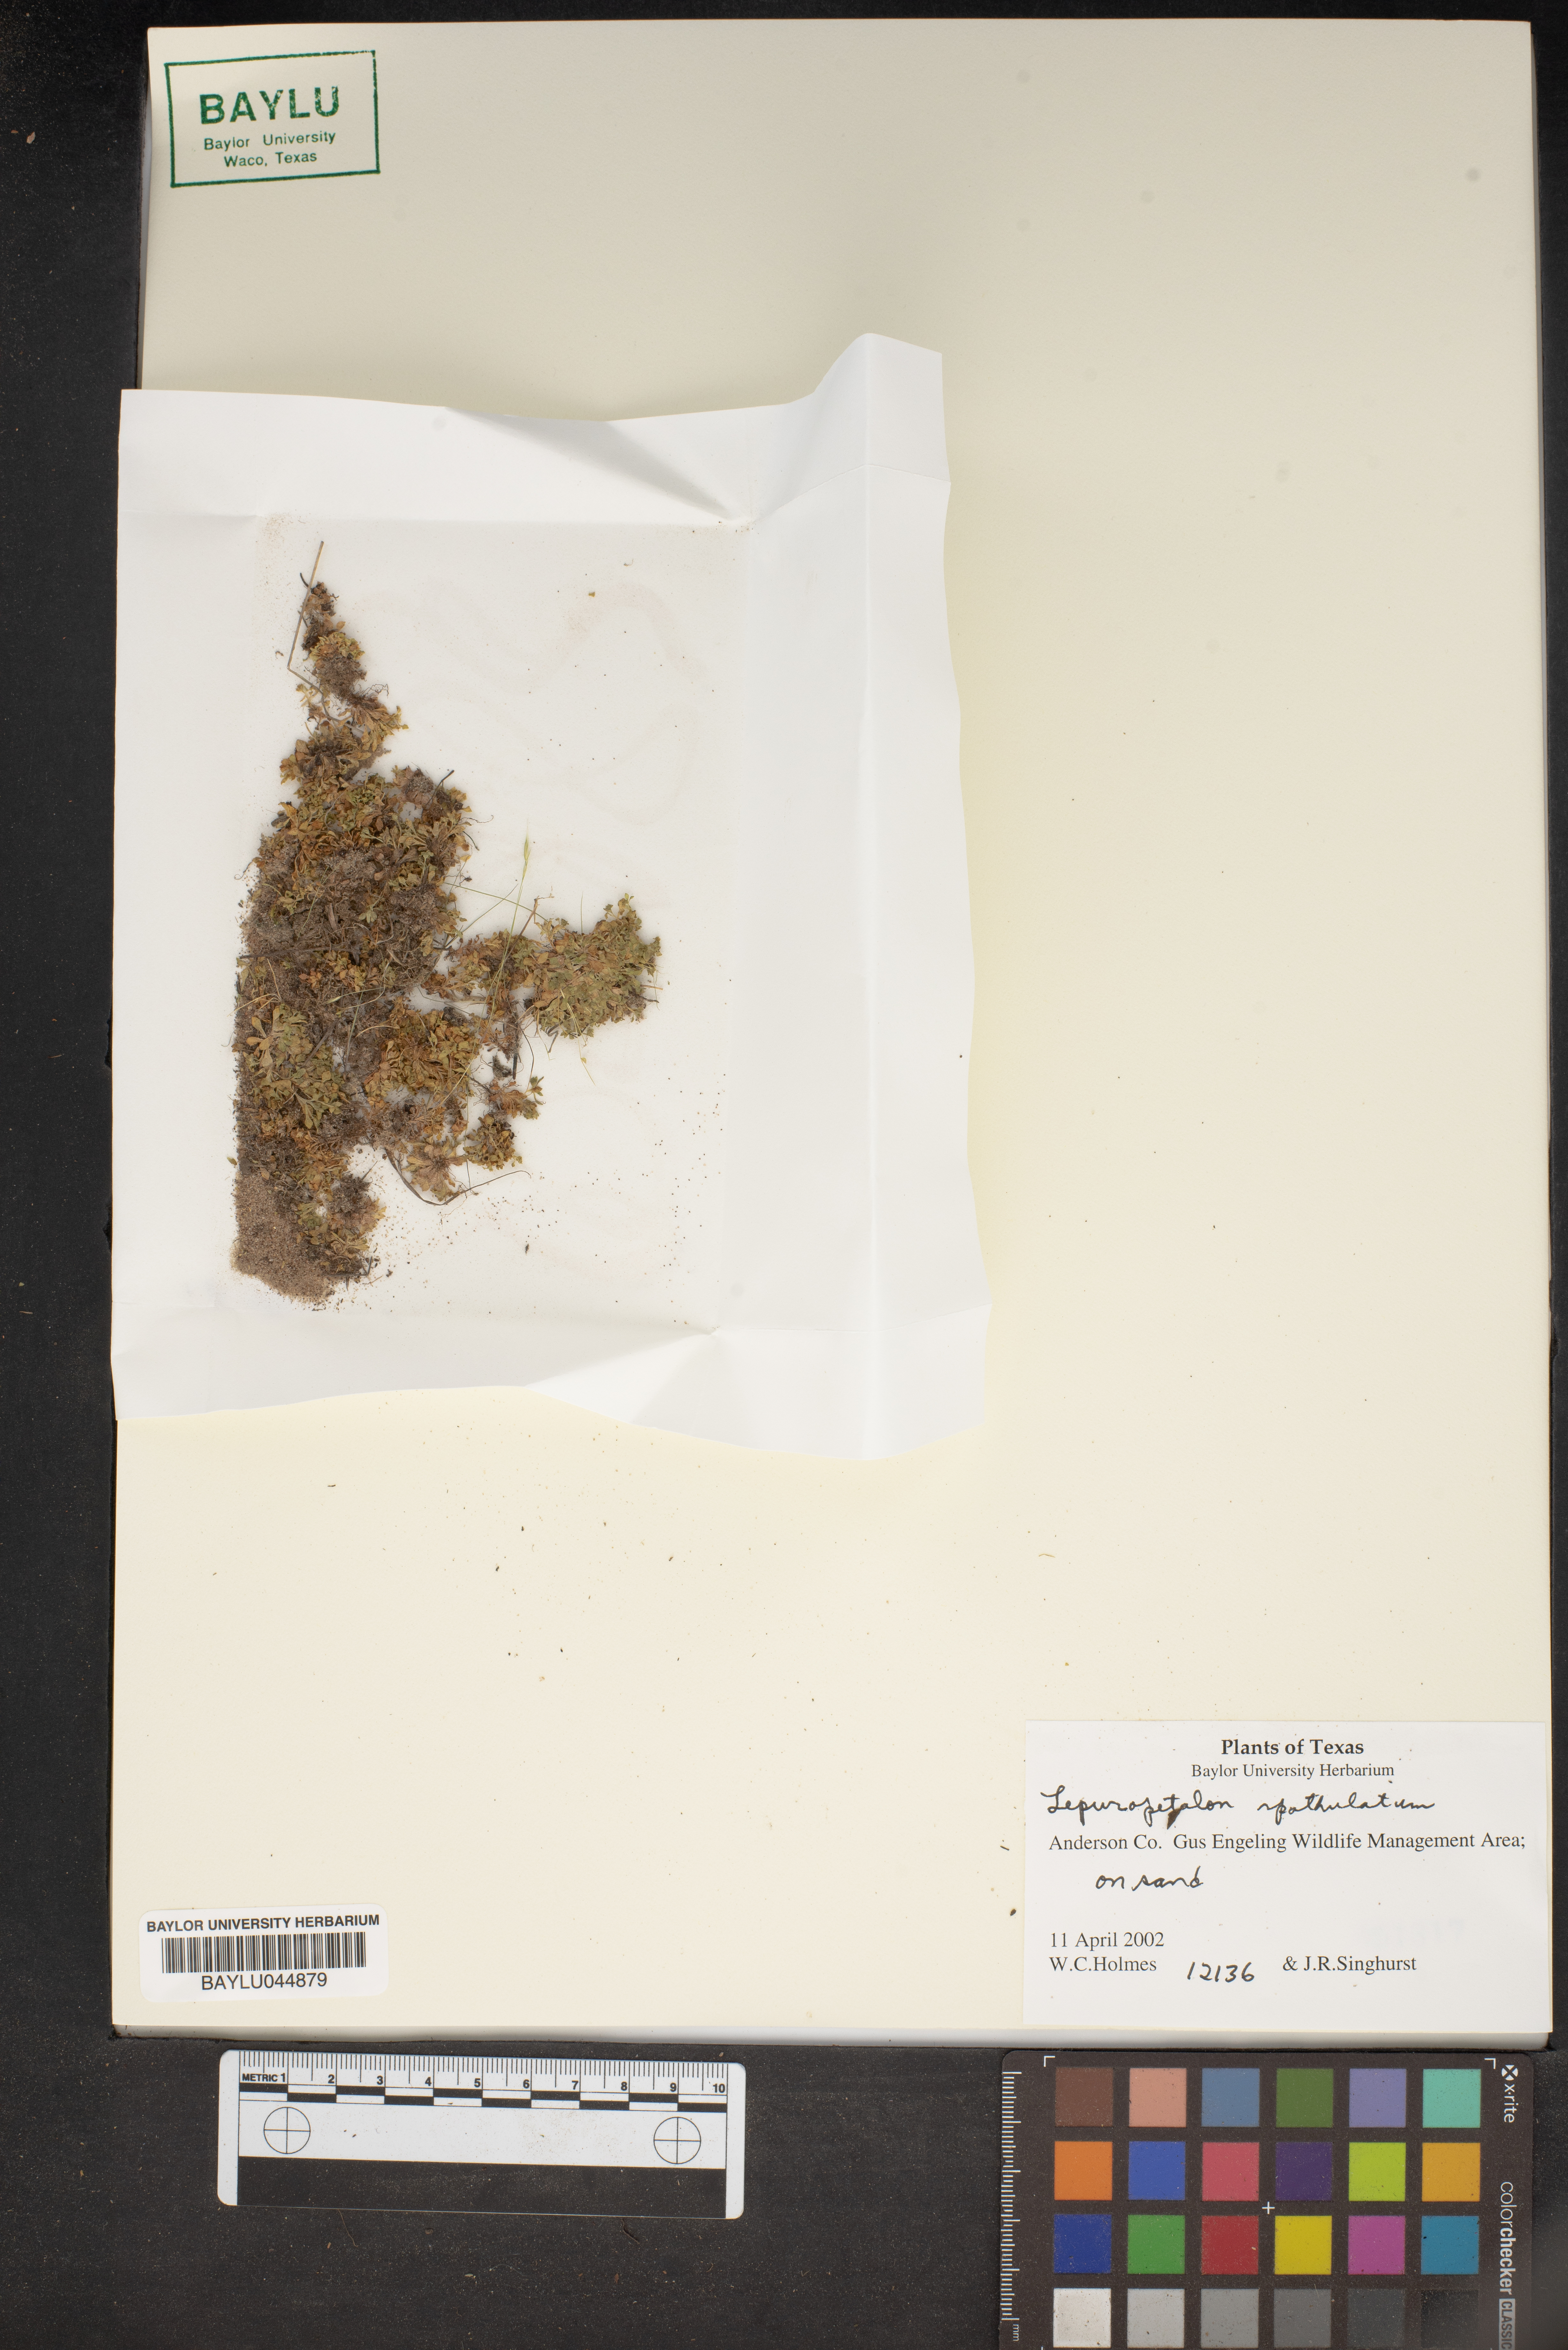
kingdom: Plantae
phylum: Tracheophyta
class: Magnoliopsida
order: Celastrales
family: Parnassiaceae
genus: Lepuropetalon
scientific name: Lepuropetalon spathulatum
